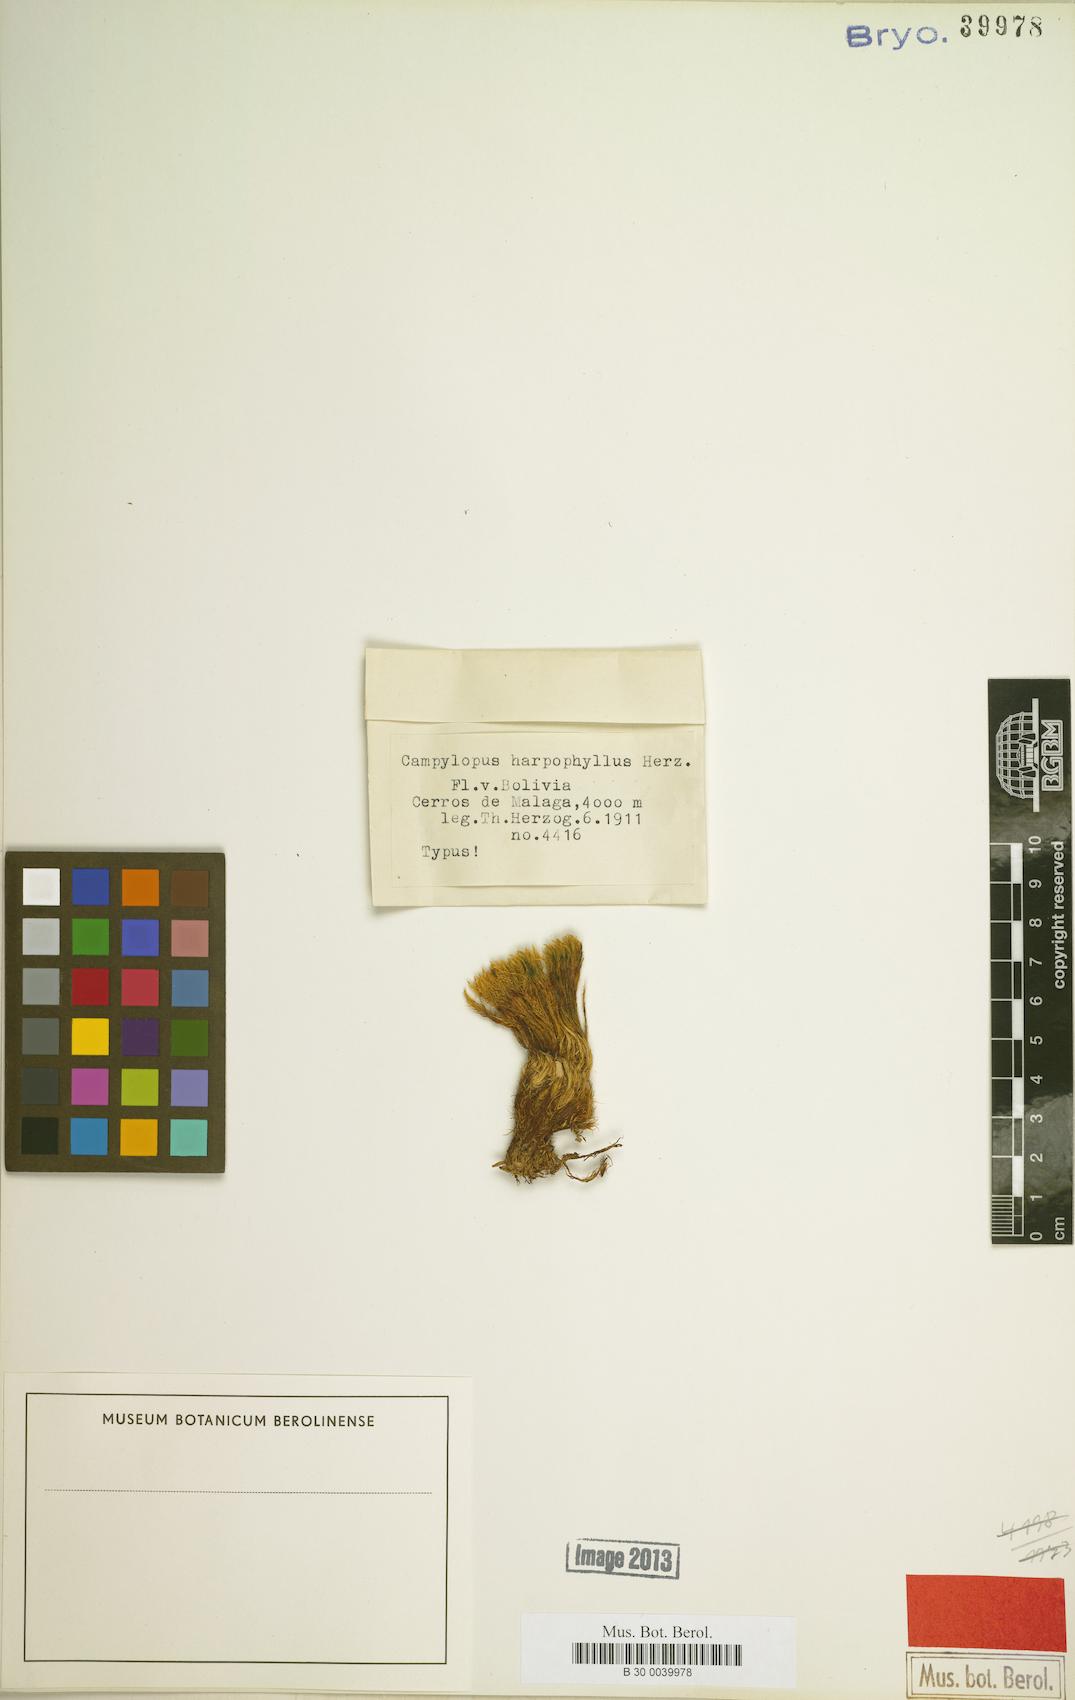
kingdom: Plantae
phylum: Bryophyta
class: Bryopsida
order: Dicranales
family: Leucobryaceae
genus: Campylopus
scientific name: Campylopus edithae
